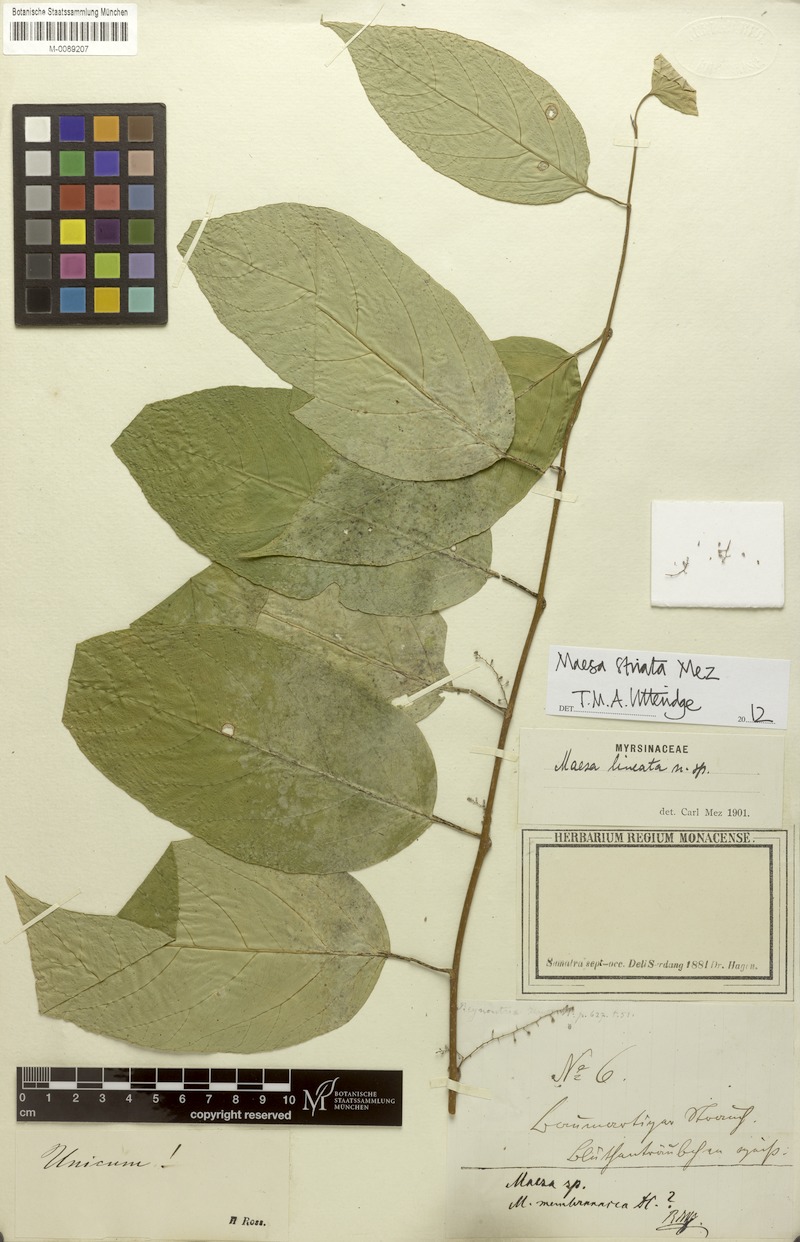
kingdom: Plantae
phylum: Tracheophyta
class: Magnoliopsida
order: Ericales
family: Primulaceae
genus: Maesa
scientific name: Maesa striata
